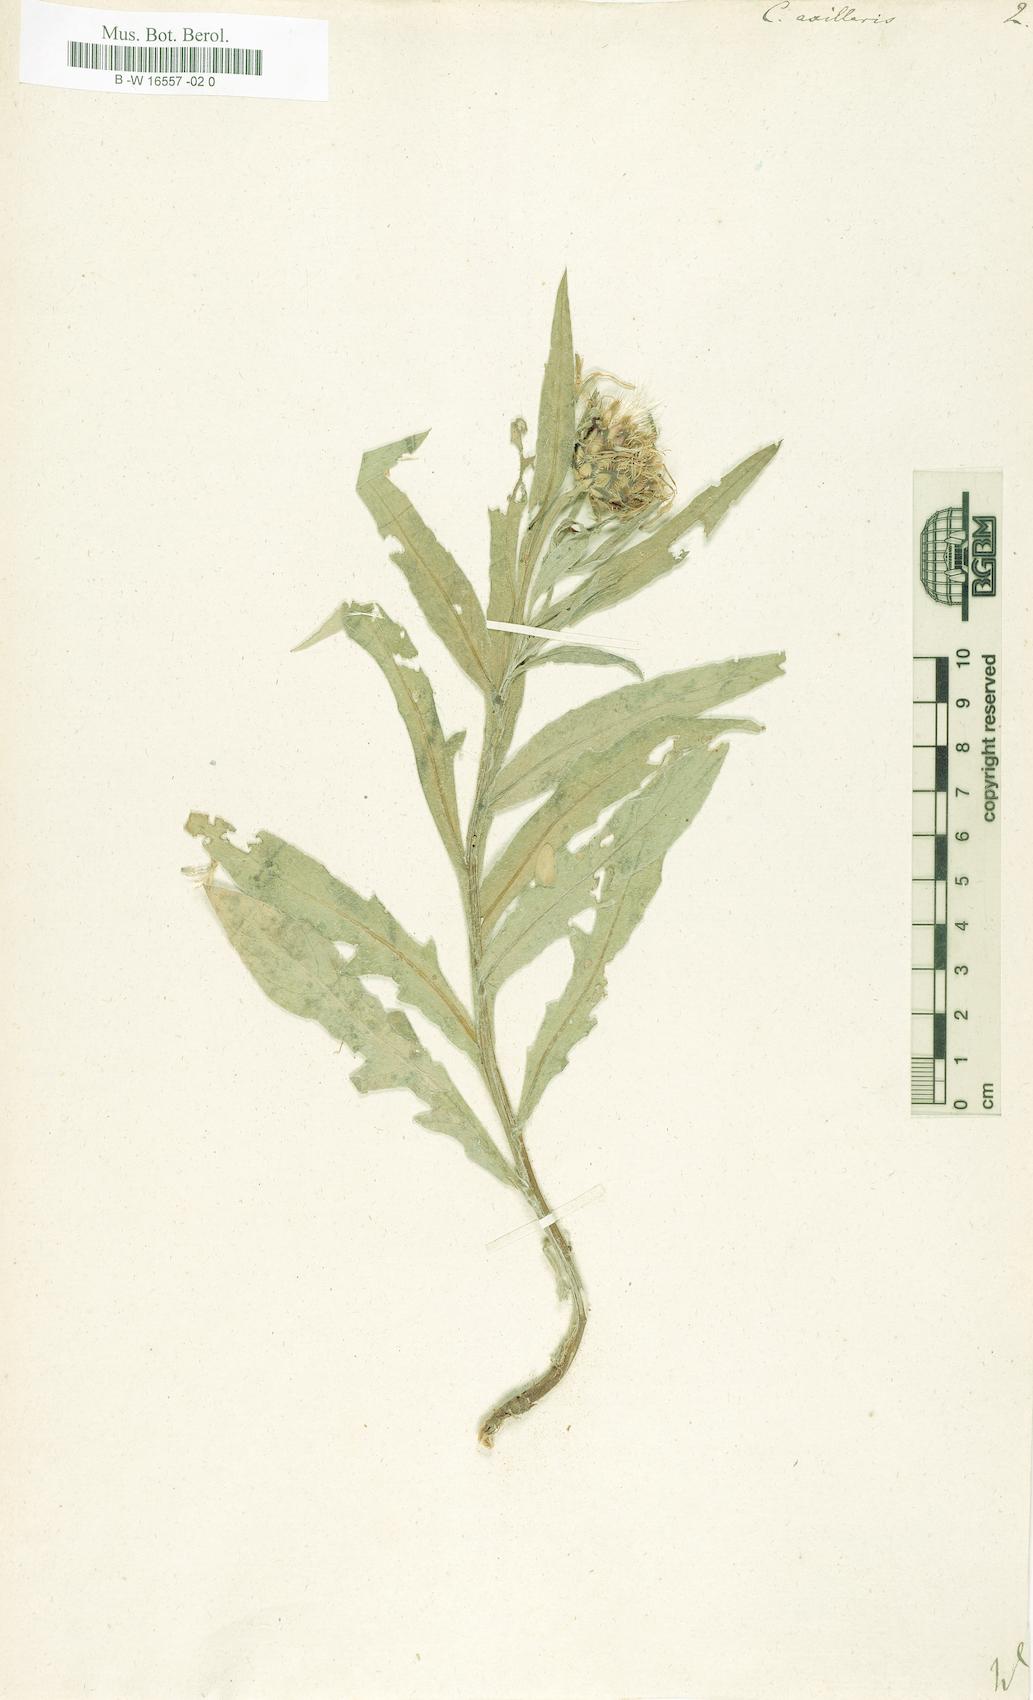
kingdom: Plantae
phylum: Tracheophyta
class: Magnoliopsida
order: Asterales
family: Asteraceae
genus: Centaurea
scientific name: Centaurea triumfettii
